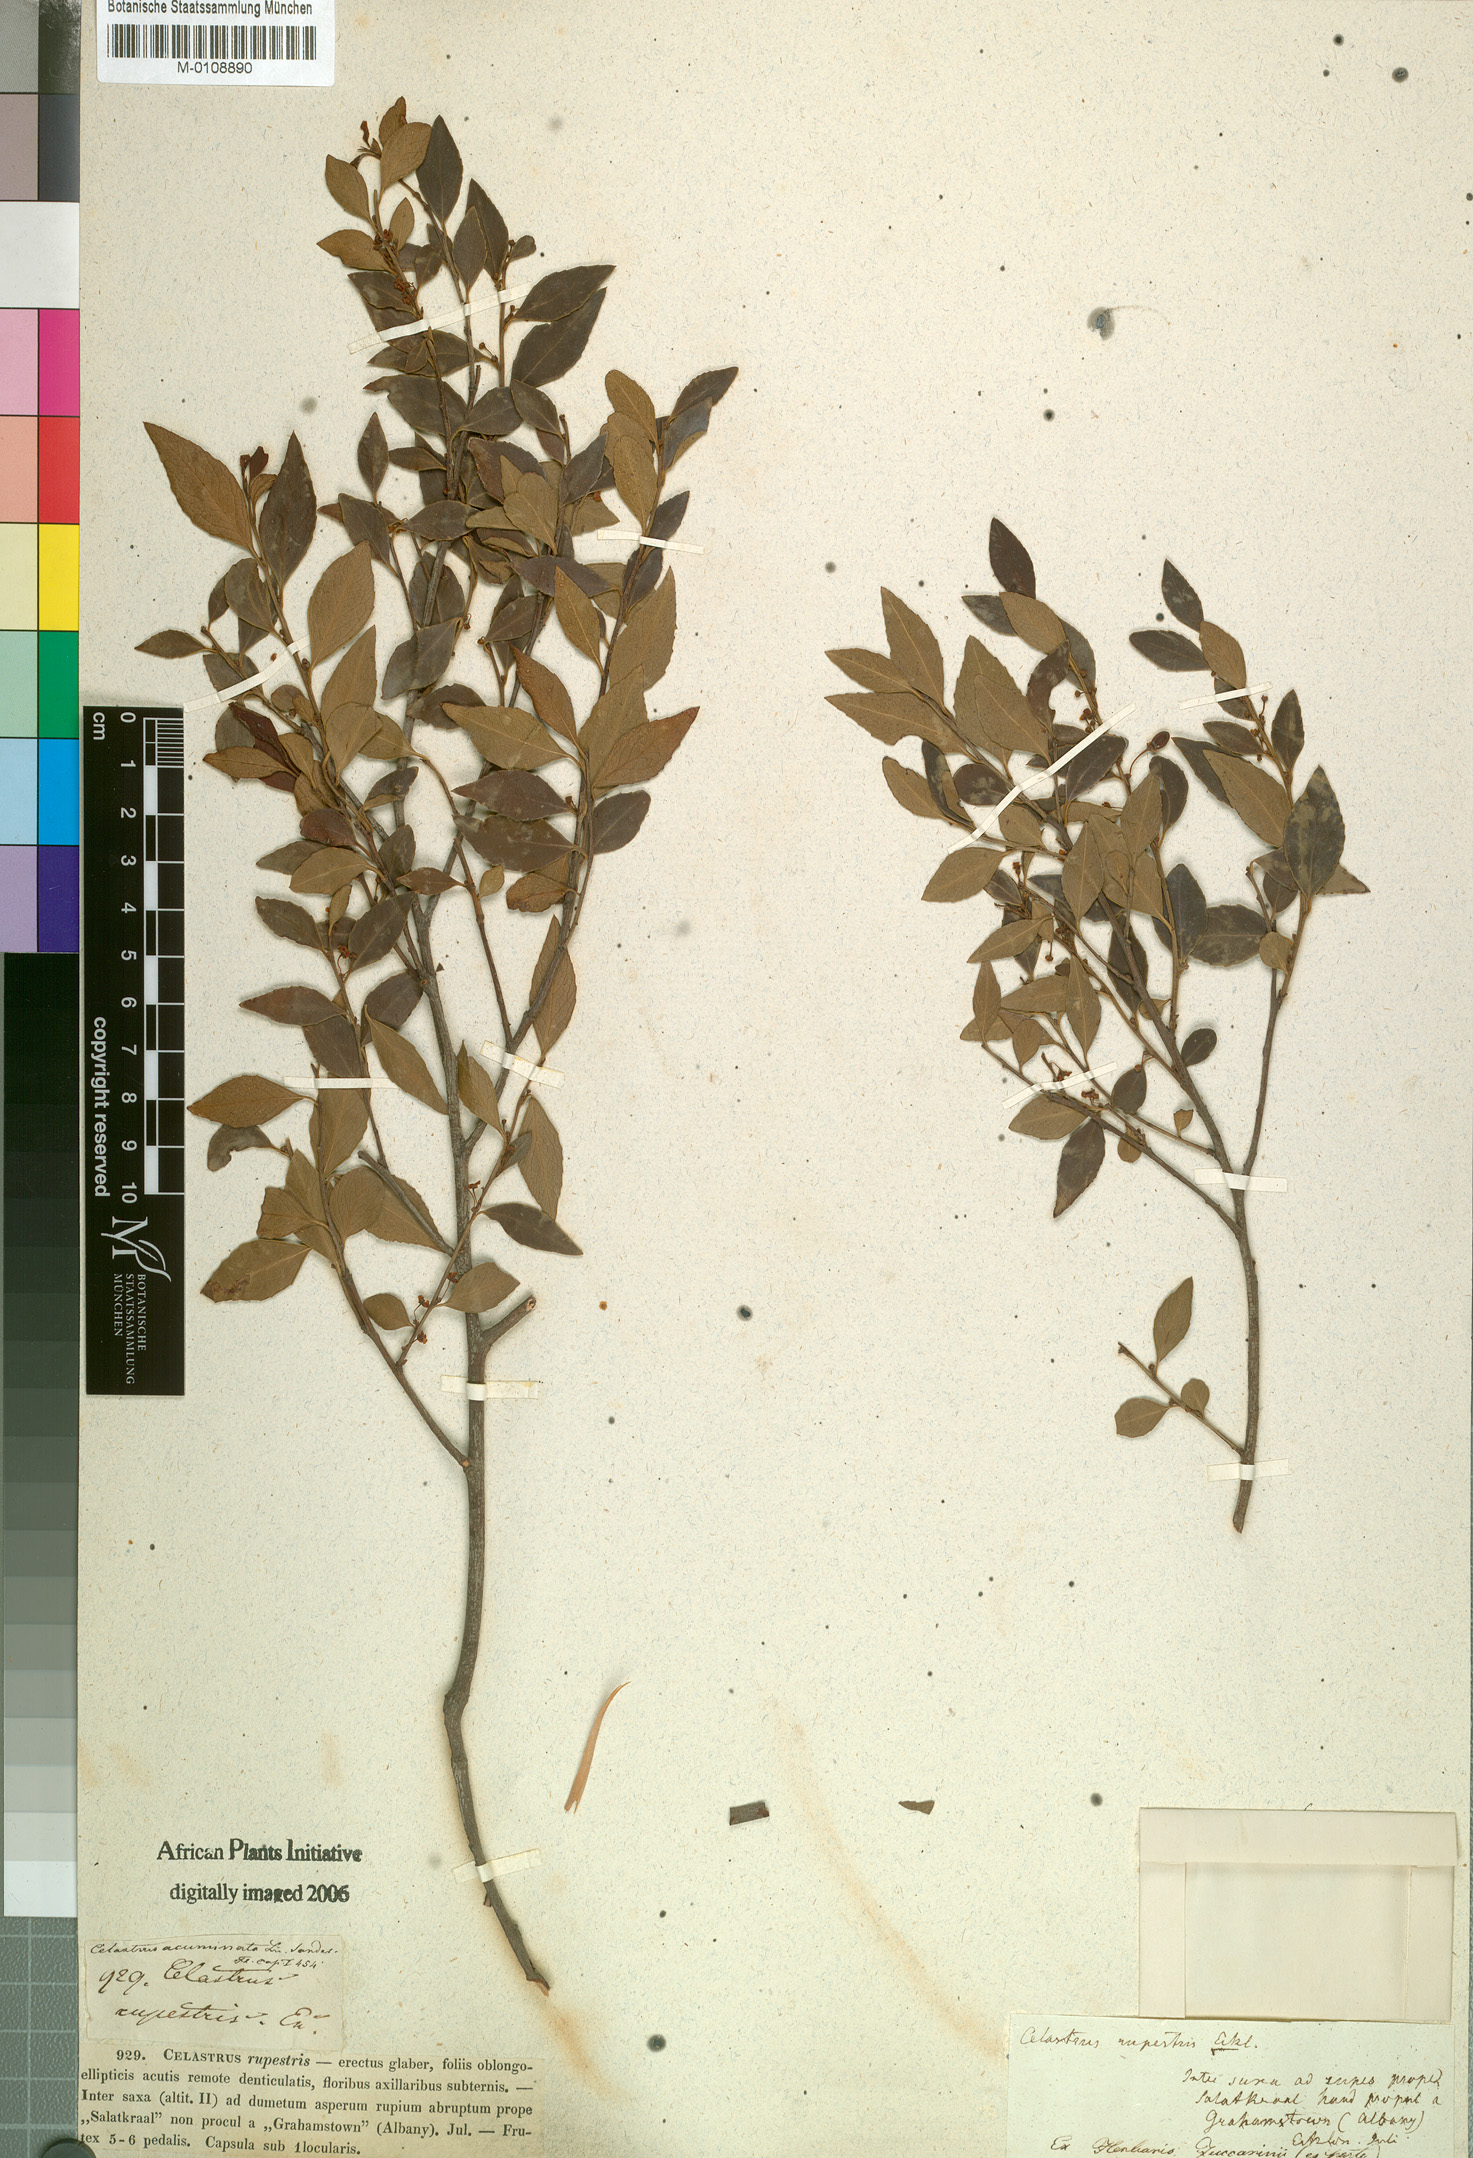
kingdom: Plantae
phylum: Tracheophyta
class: Magnoliopsida
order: Celastrales
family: Celastraceae
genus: Gymnosporia
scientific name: Gymnosporia acuminata
